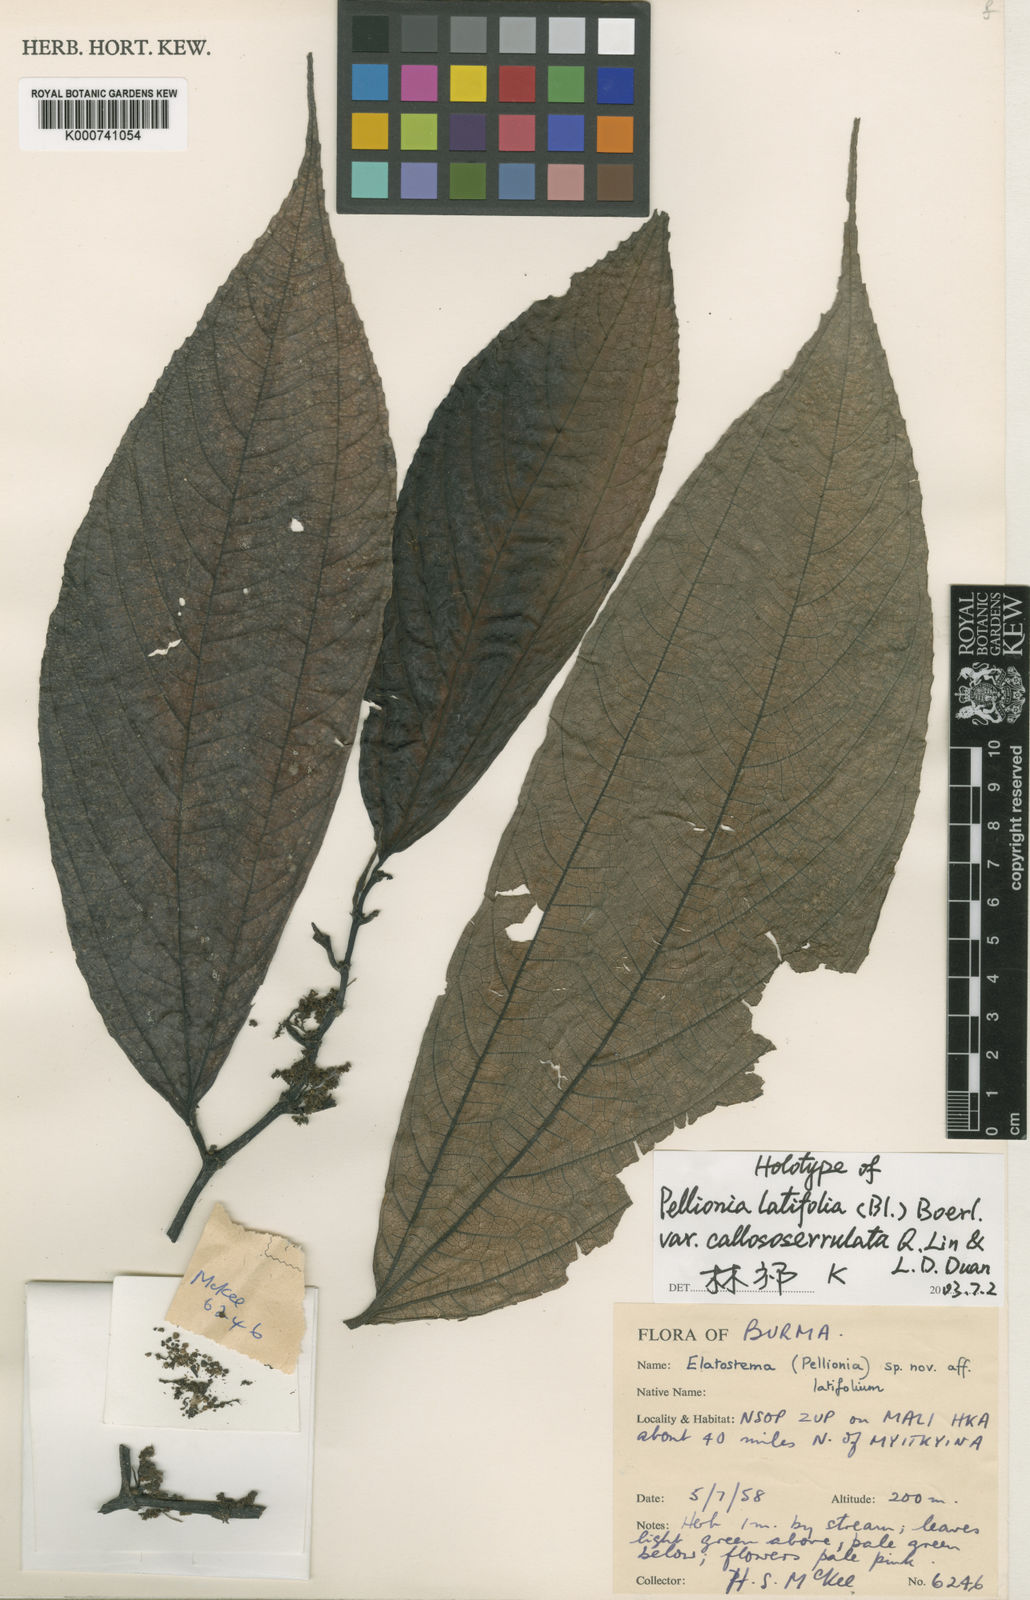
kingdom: Plantae
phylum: Tracheophyta
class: Magnoliopsida
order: Rosales
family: Urticaceae
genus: Elatostema
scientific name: Elatostema latifolium
